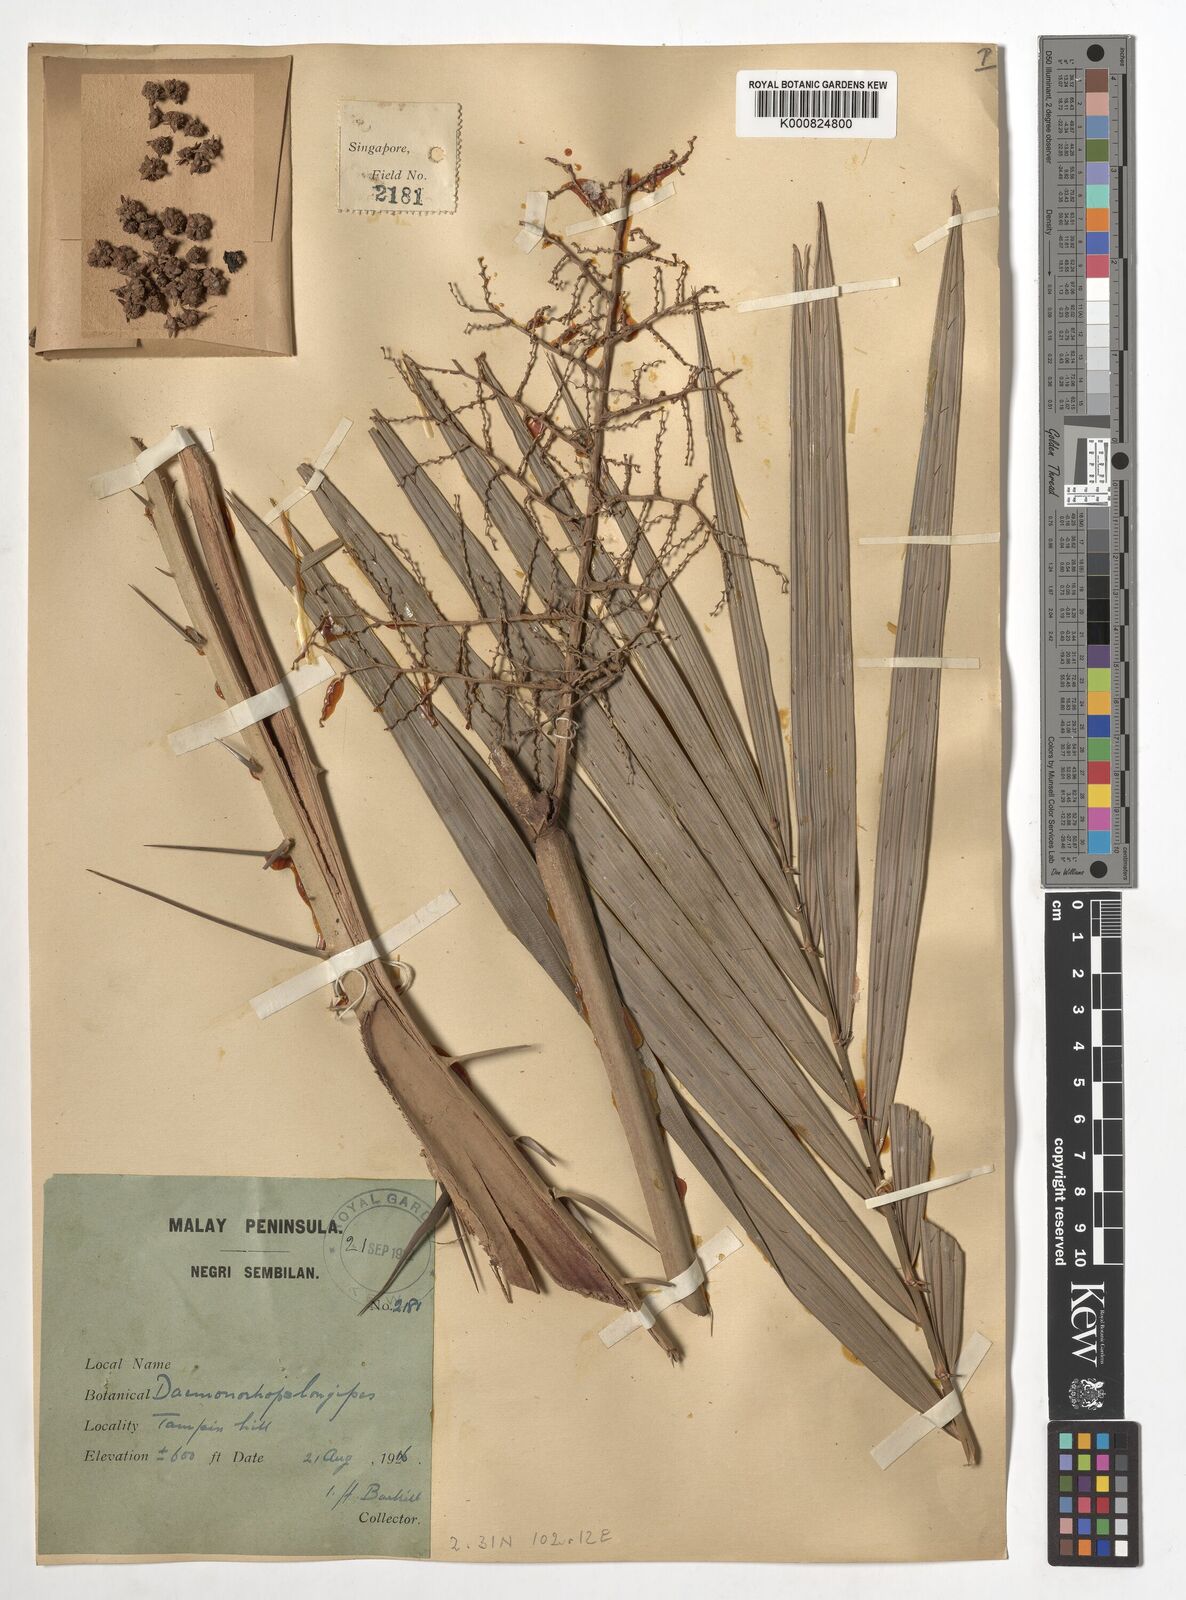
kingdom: Plantae
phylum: Tracheophyta
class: Liliopsida
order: Arecales
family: Arecaceae
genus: Calamus
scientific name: Calamus longipes
